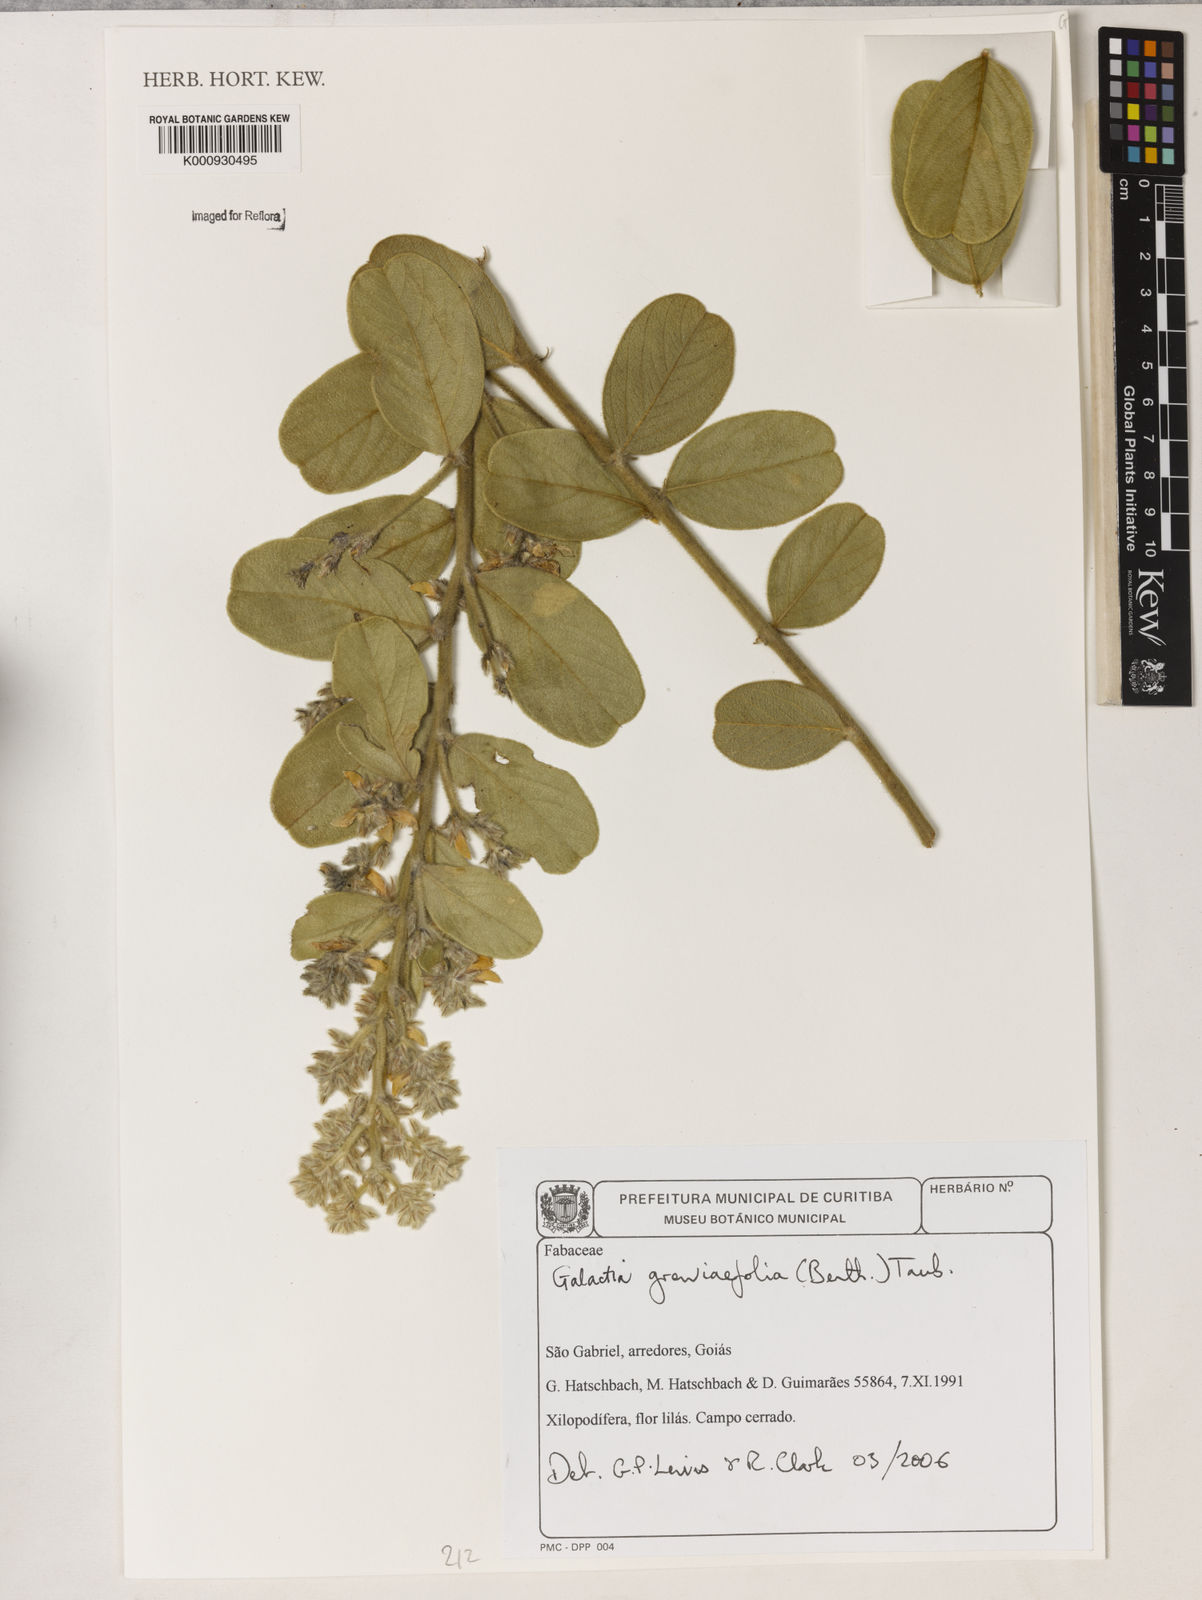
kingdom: Plantae
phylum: Tracheophyta
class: Magnoliopsida
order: Fabales
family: Fabaceae
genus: Galactia
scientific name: Galactia
